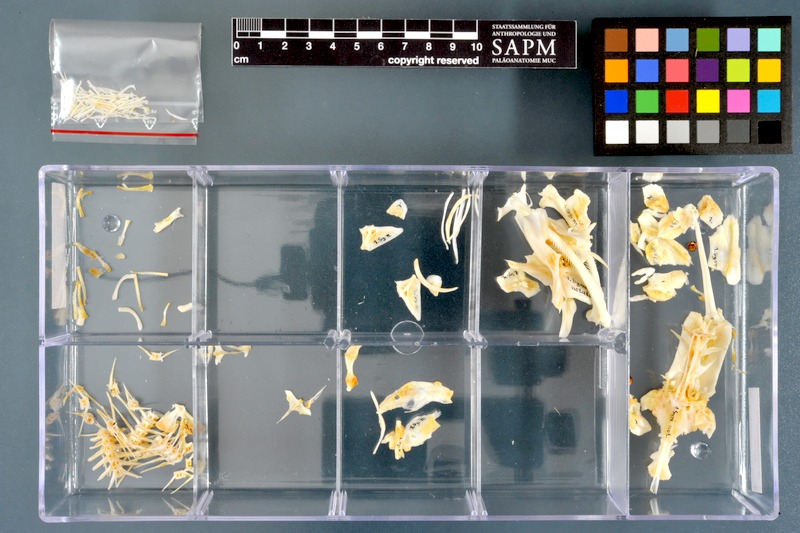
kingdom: Animalia
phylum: Chordata
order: Siluriformes
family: Mochokidae
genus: Synodontis
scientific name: Synodontis notatus
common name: Onespot squeaker
